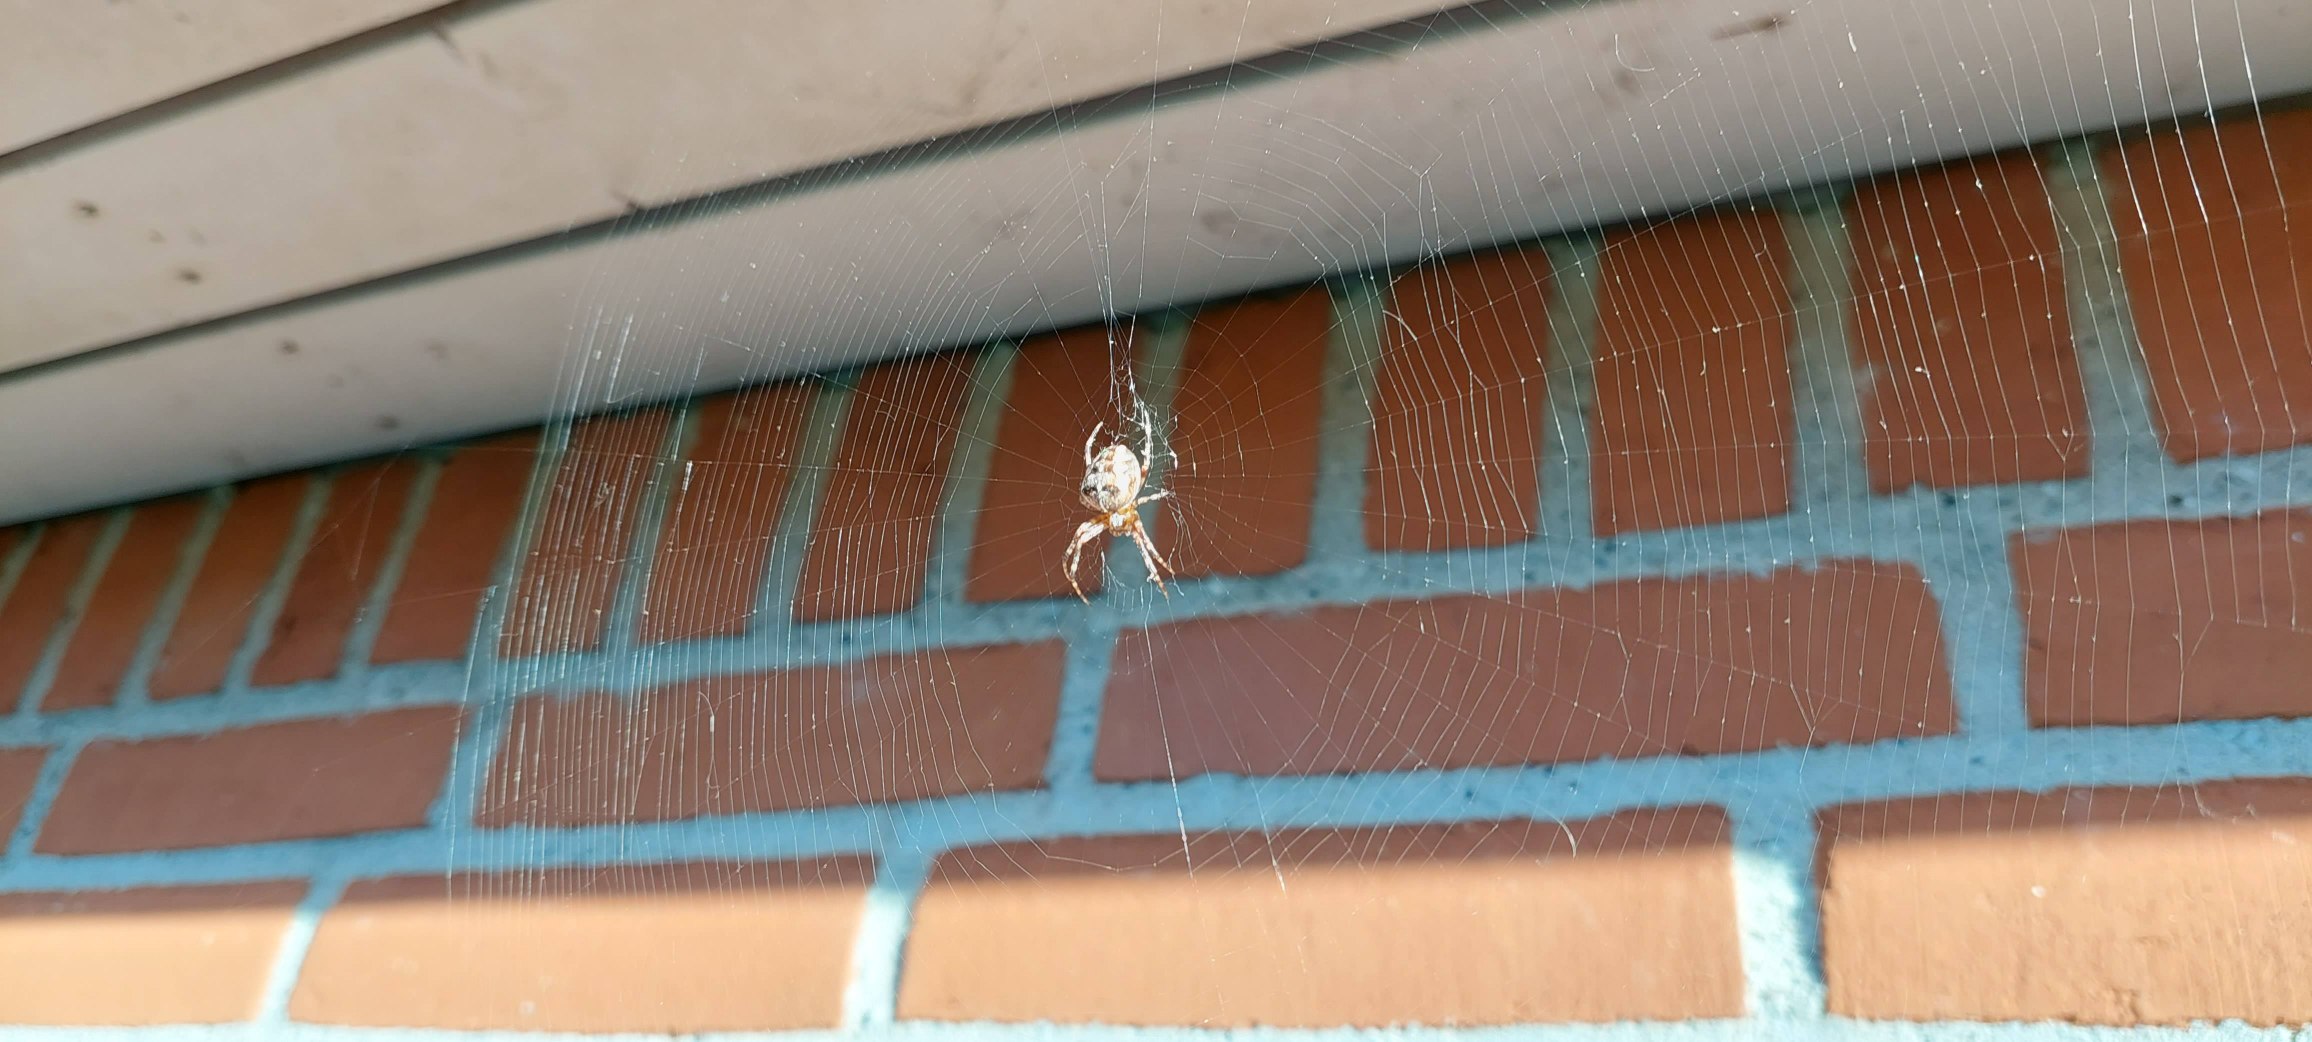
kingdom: Animalia
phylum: Arthropoda
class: Arachnida
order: Araneae
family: Araneidae
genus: Araneus
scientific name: Araneus diadematus
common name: Korsedderkop
